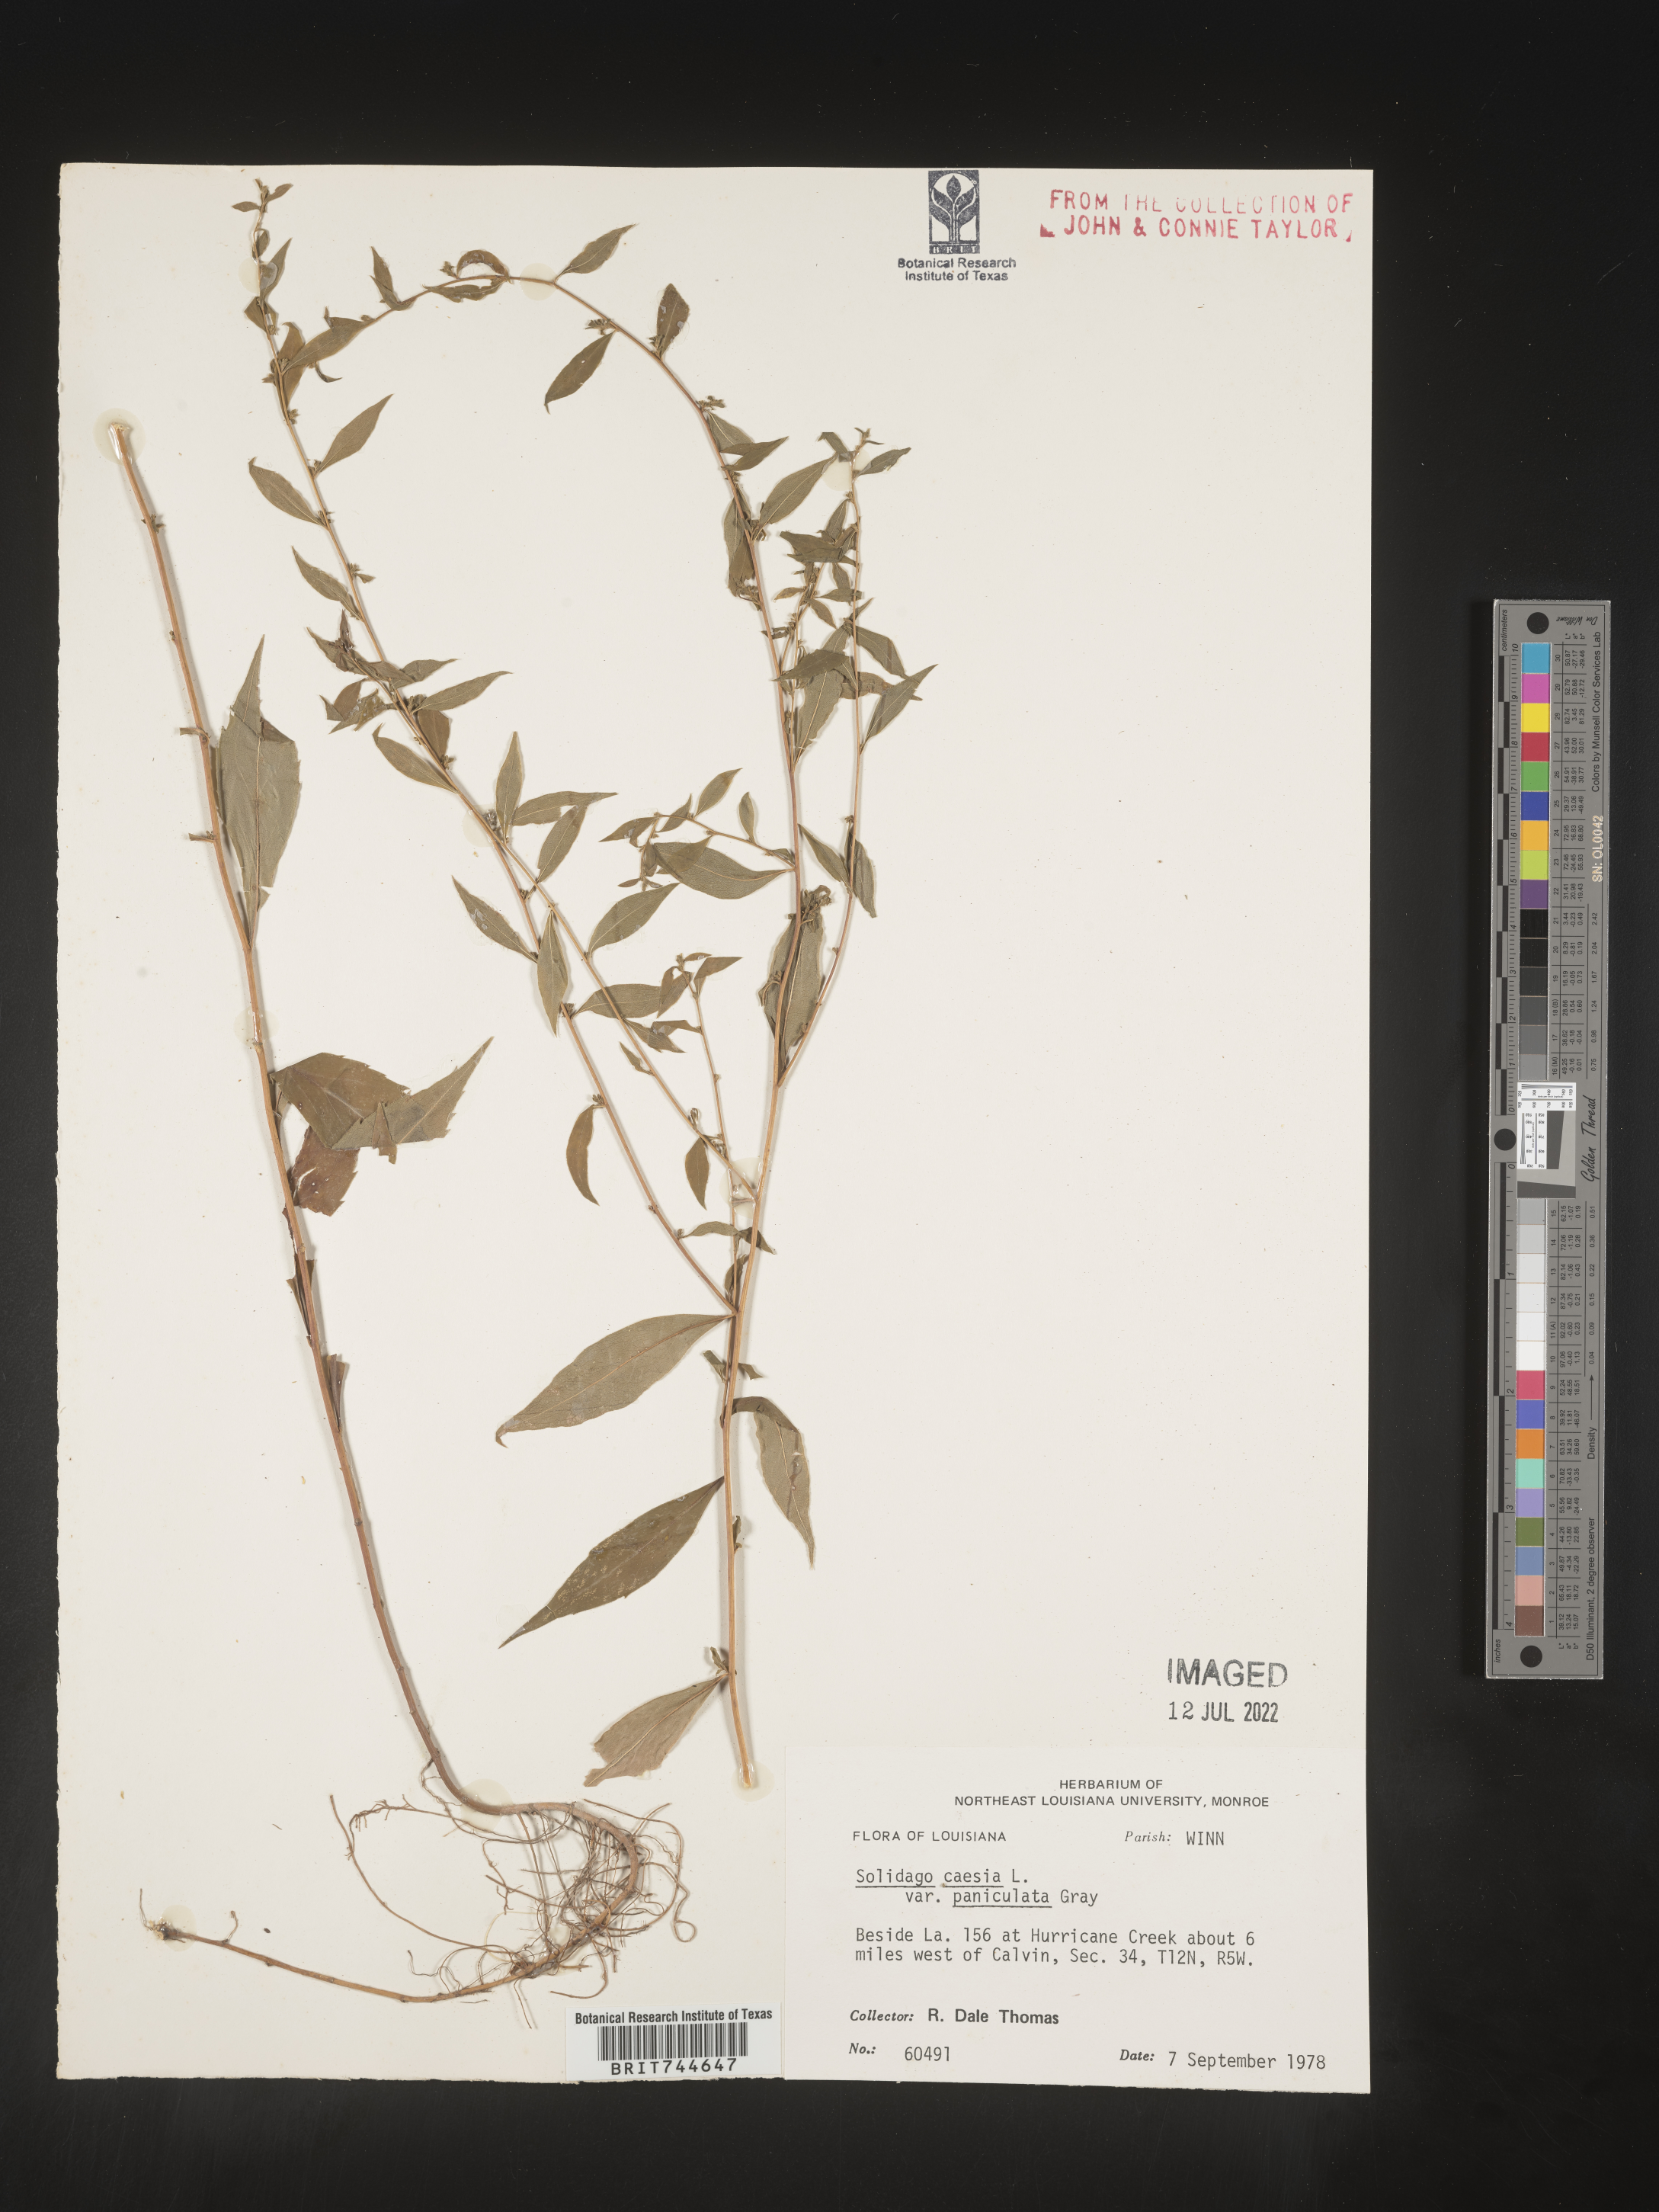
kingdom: Plantae
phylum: Tracheophyta
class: Magnoliopsida
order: Asterales
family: Asteraceae
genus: Solidago
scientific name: Solidago caesia
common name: Woodland goldenrod
